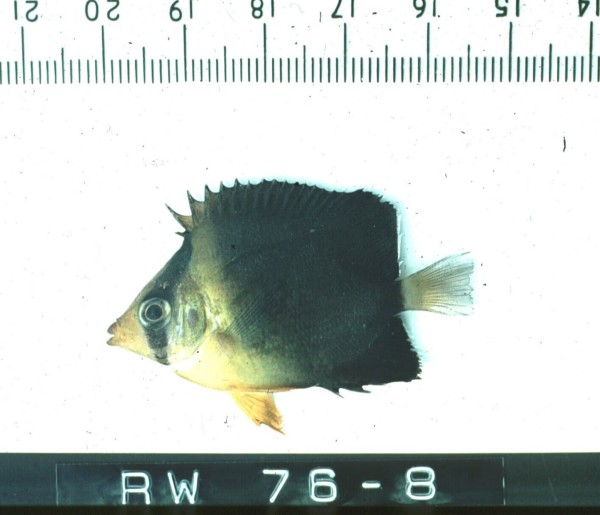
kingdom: Animalia
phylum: Chordata
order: Perciformes
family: Chaetodontidae
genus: Chaetodon
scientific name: Chaetodon blackburnii
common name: Blackburn's butterflyfish
